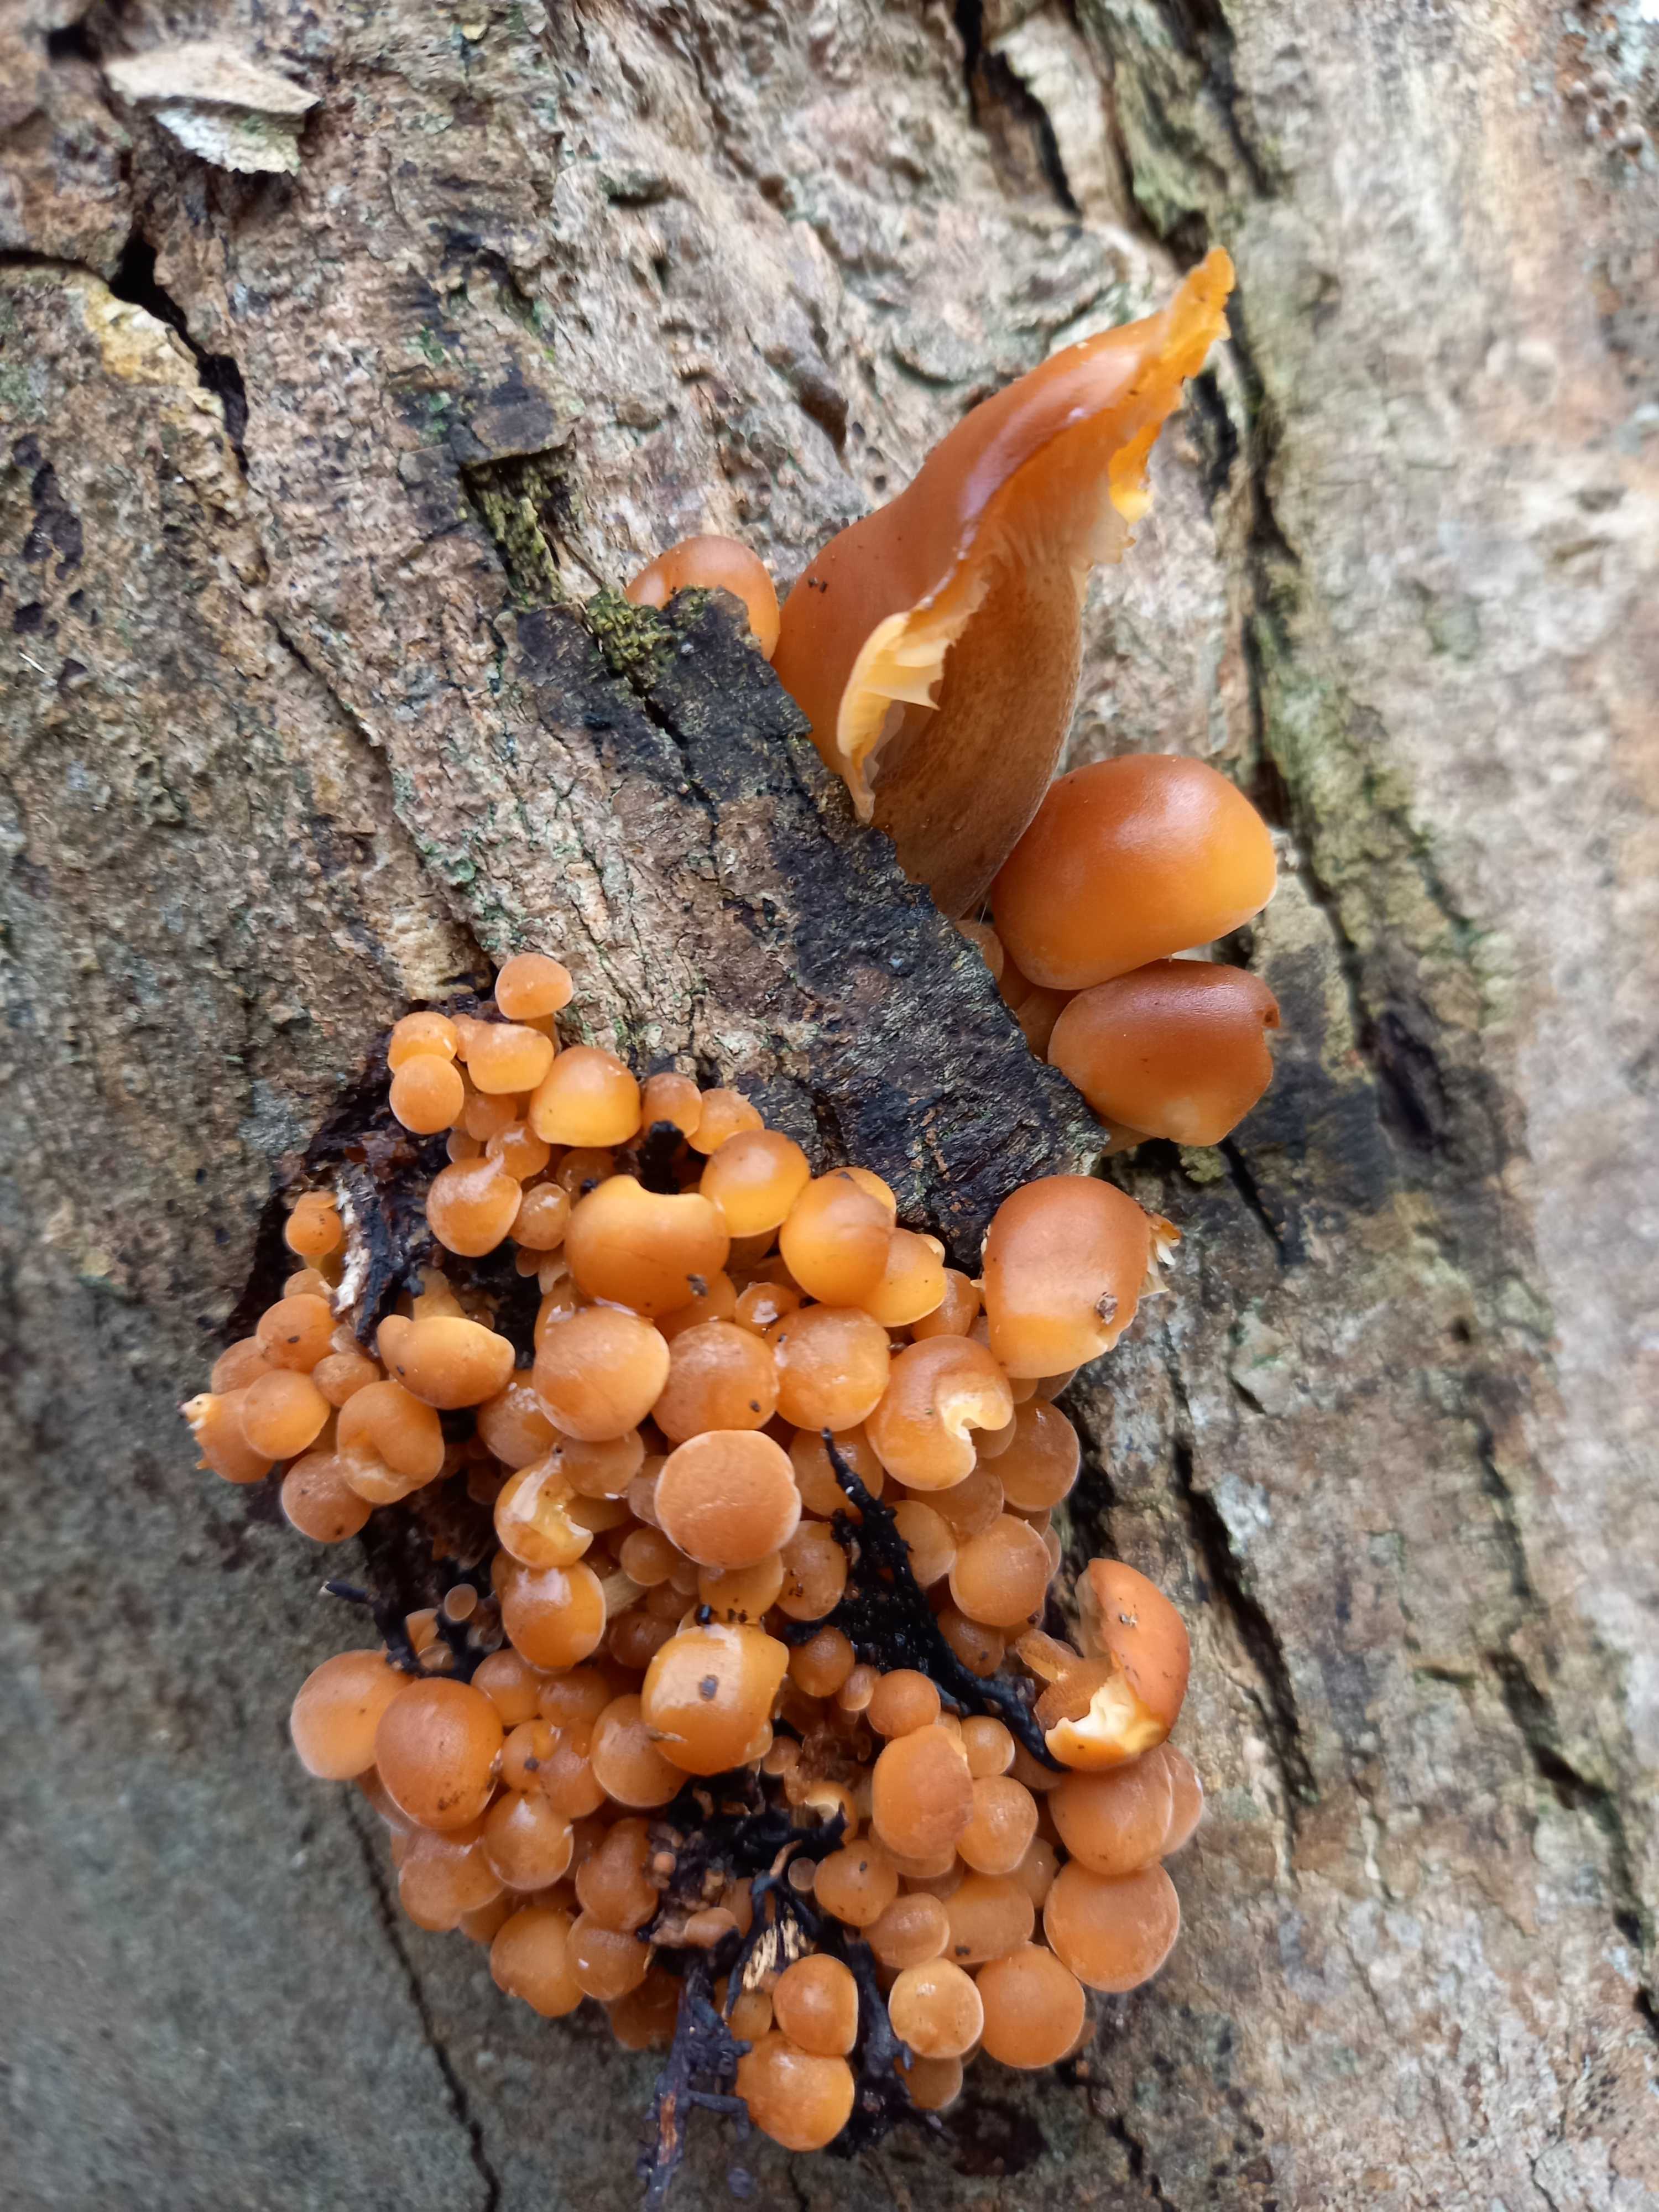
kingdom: Fungi
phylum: Basidiomycota
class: Agaricomycetes
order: Agaricales
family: Physalacriaceae
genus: Flammulina
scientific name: Flammulina velutipes
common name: gul fløjlsfod
